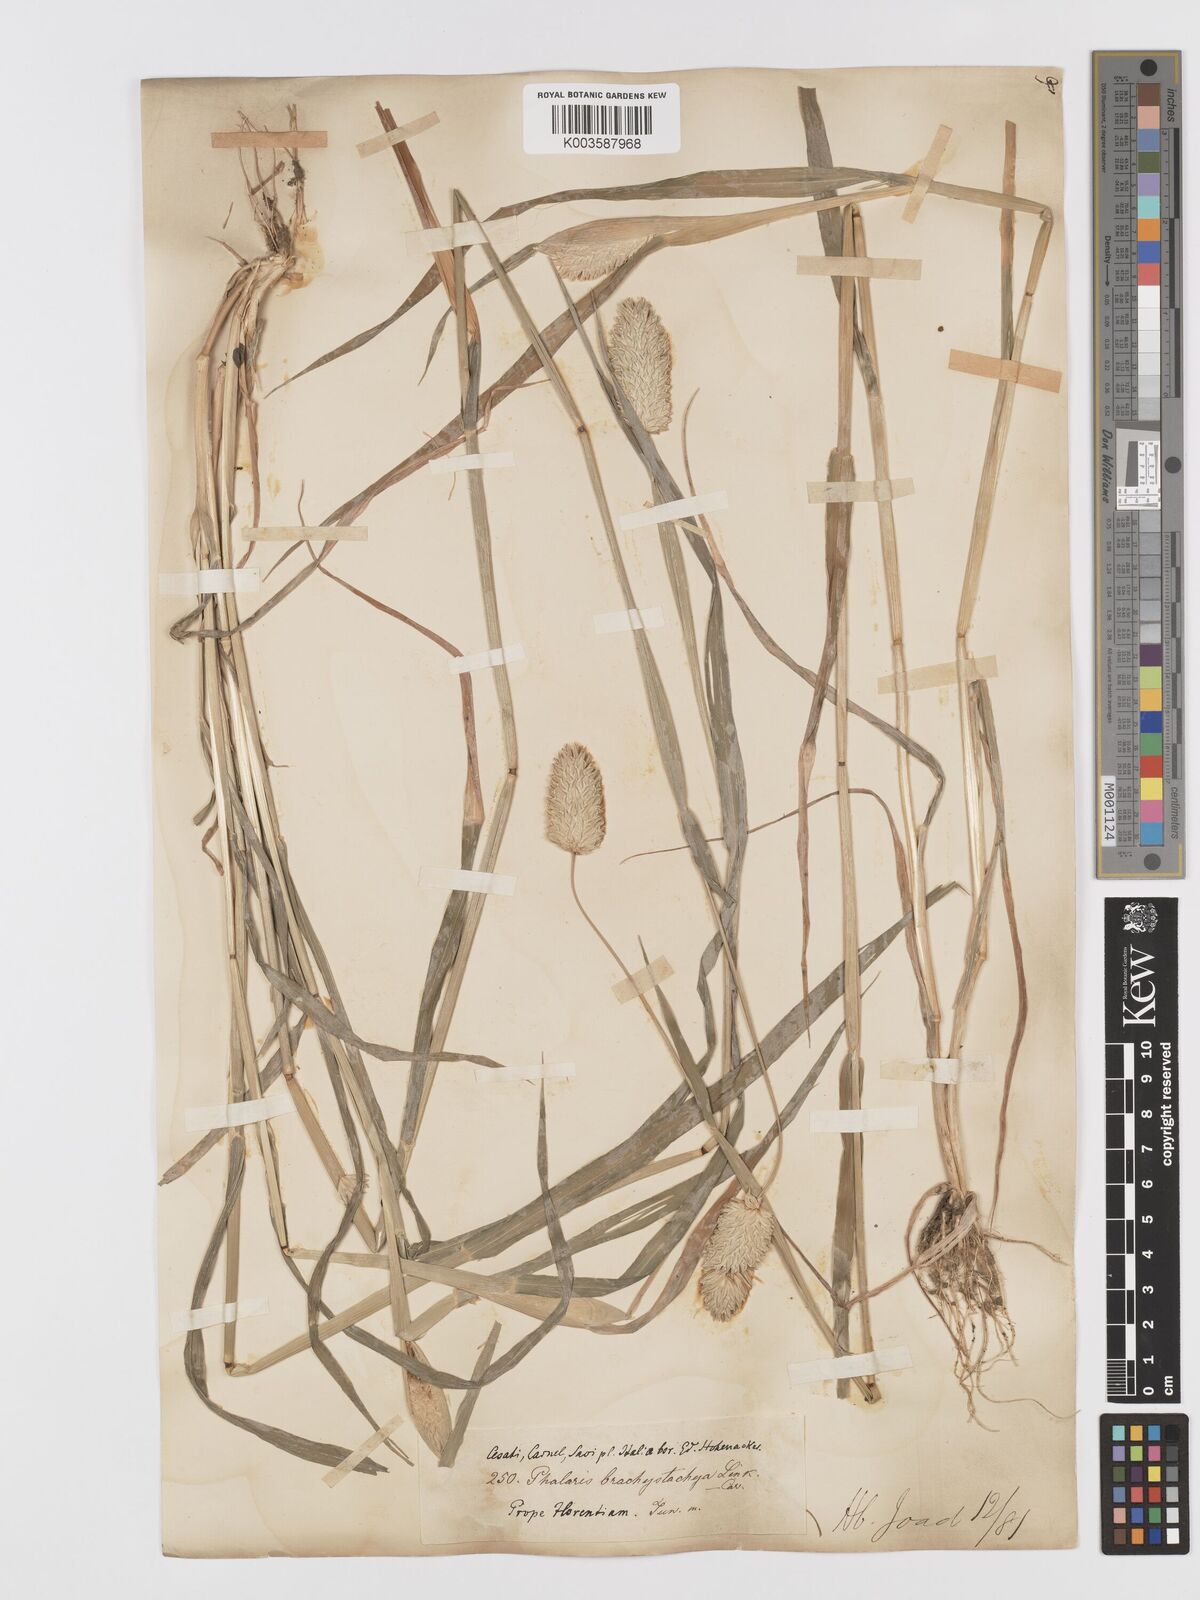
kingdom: Plantae
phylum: Tracheophyta
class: Liliopsida
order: Poales
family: Poaceae
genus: Phalaris
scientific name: Phalaris brachystachys
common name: Confused canary-grass
